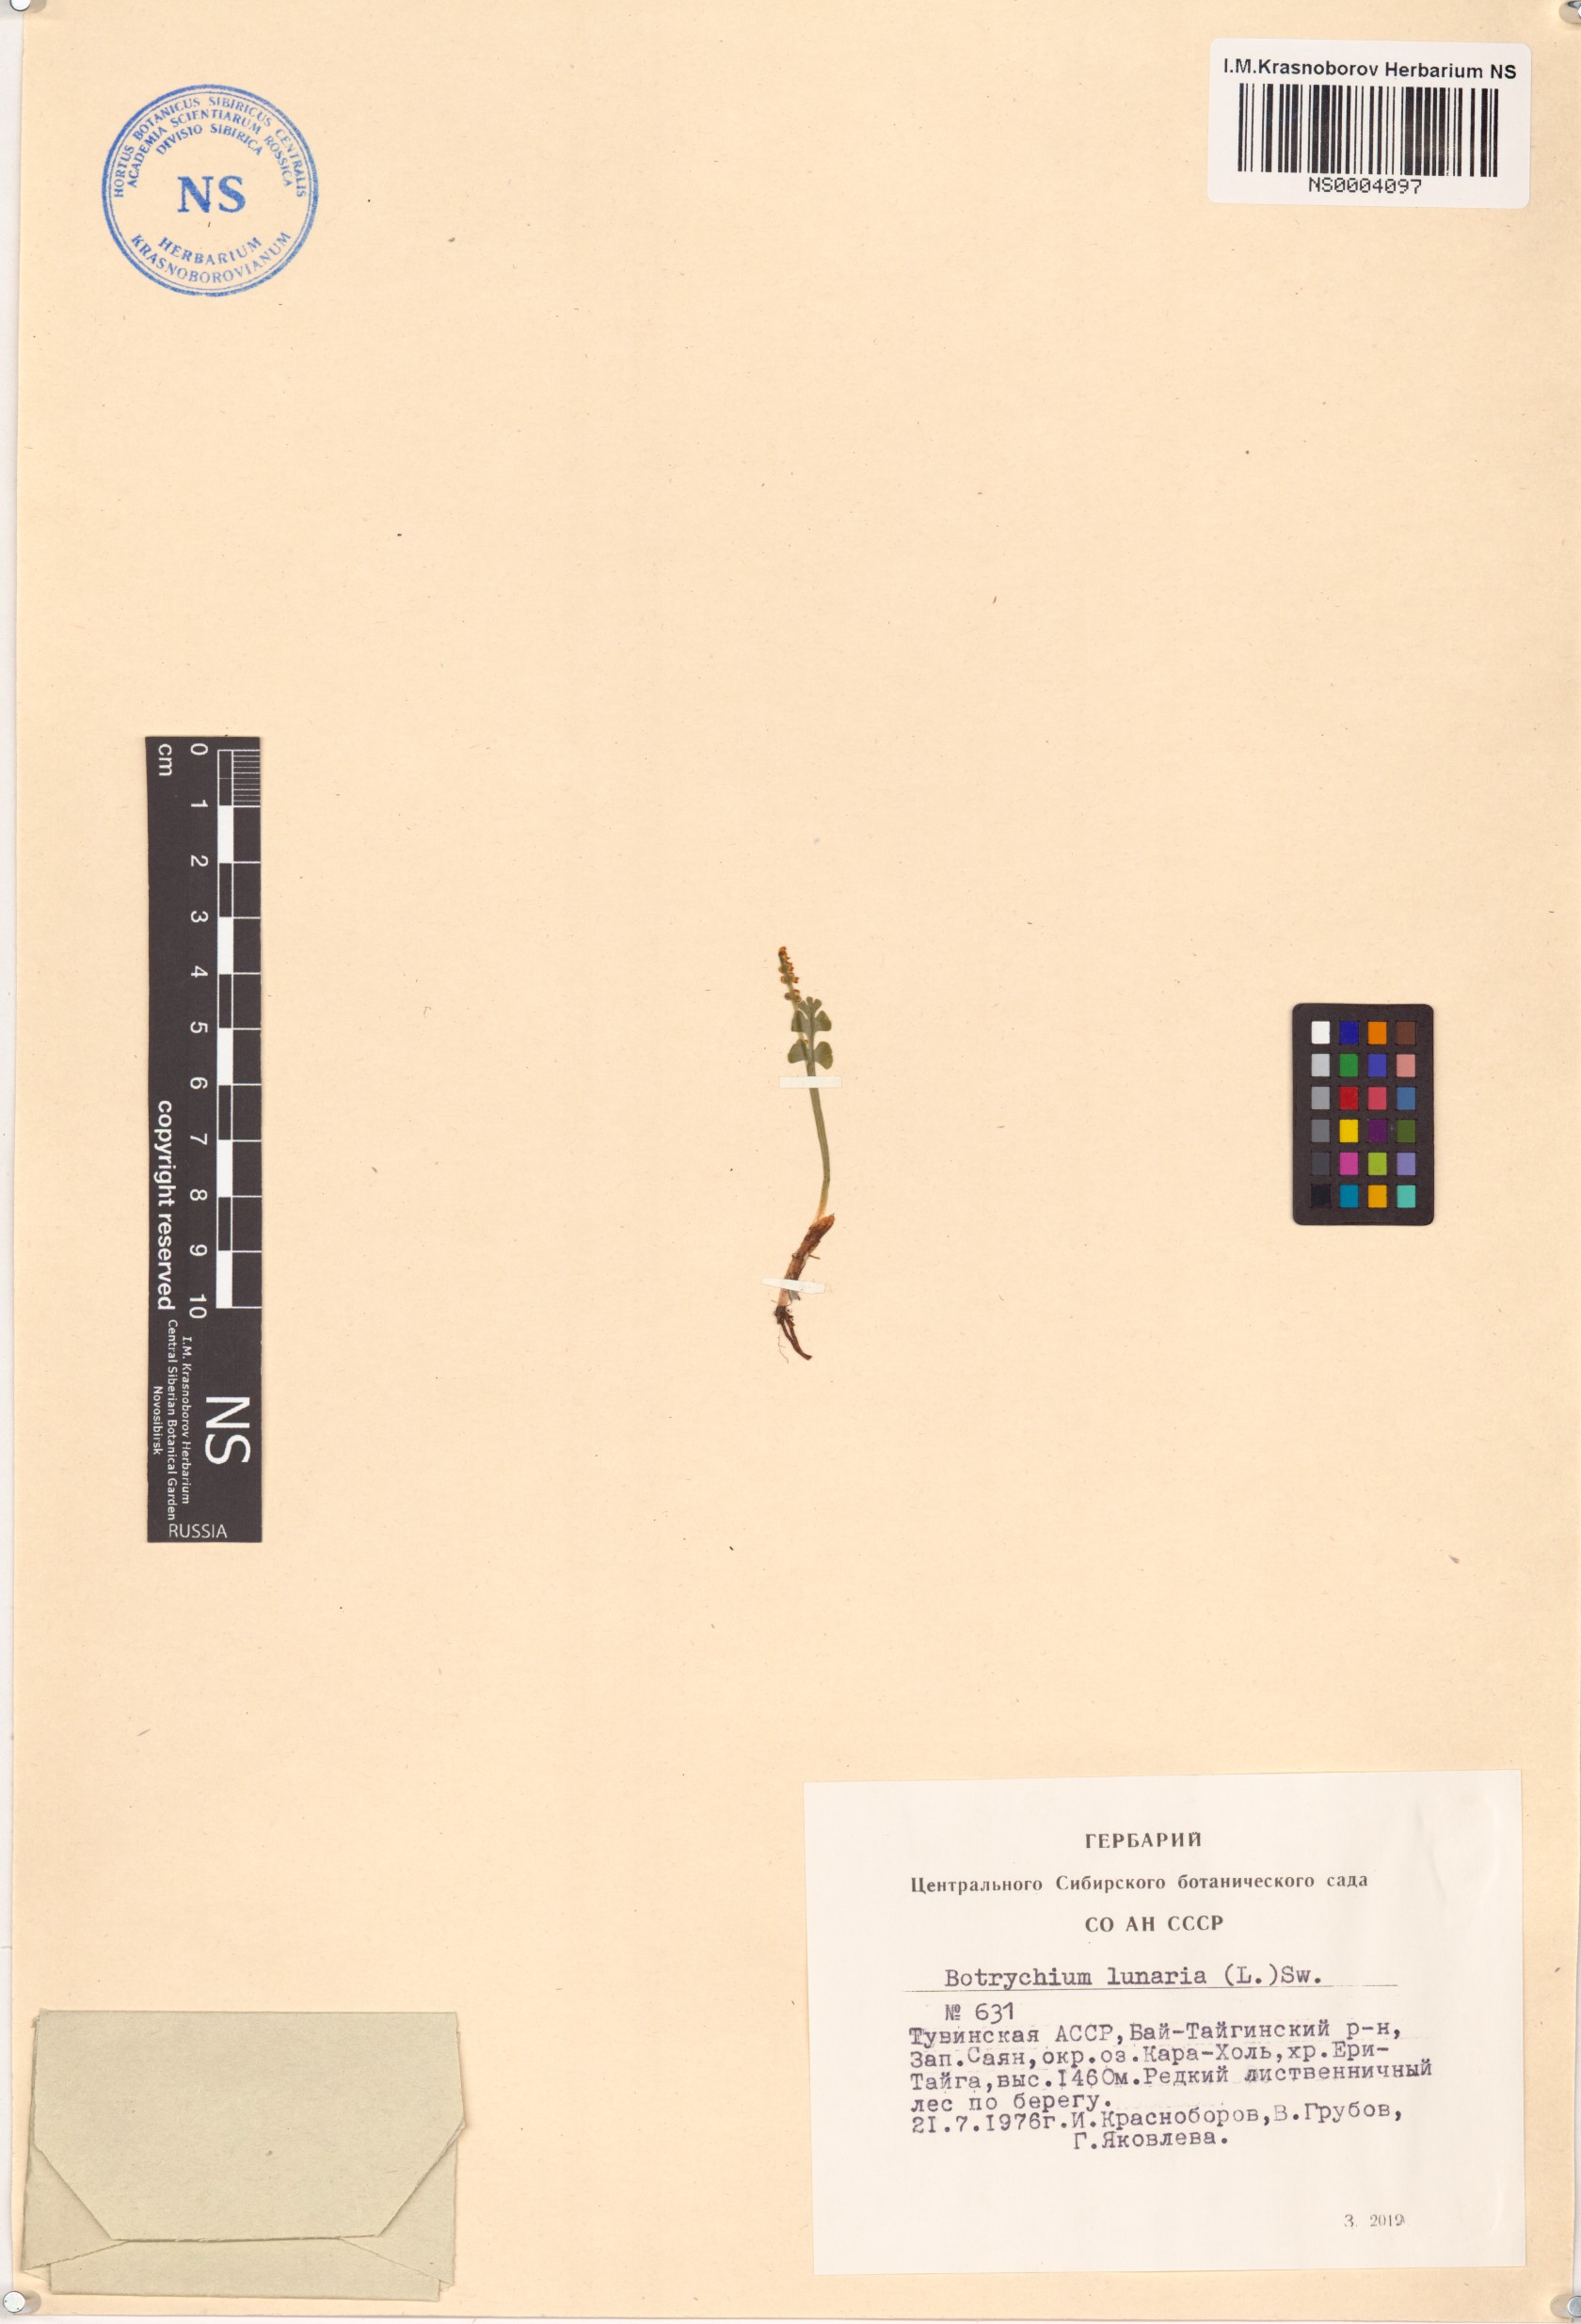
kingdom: Plantae
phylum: Tracheophyta
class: Polypodiopsida
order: Ophioglossales
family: Ophioglossaceae
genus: Botrychium
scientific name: Botrychium lunaria
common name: Moonwort
